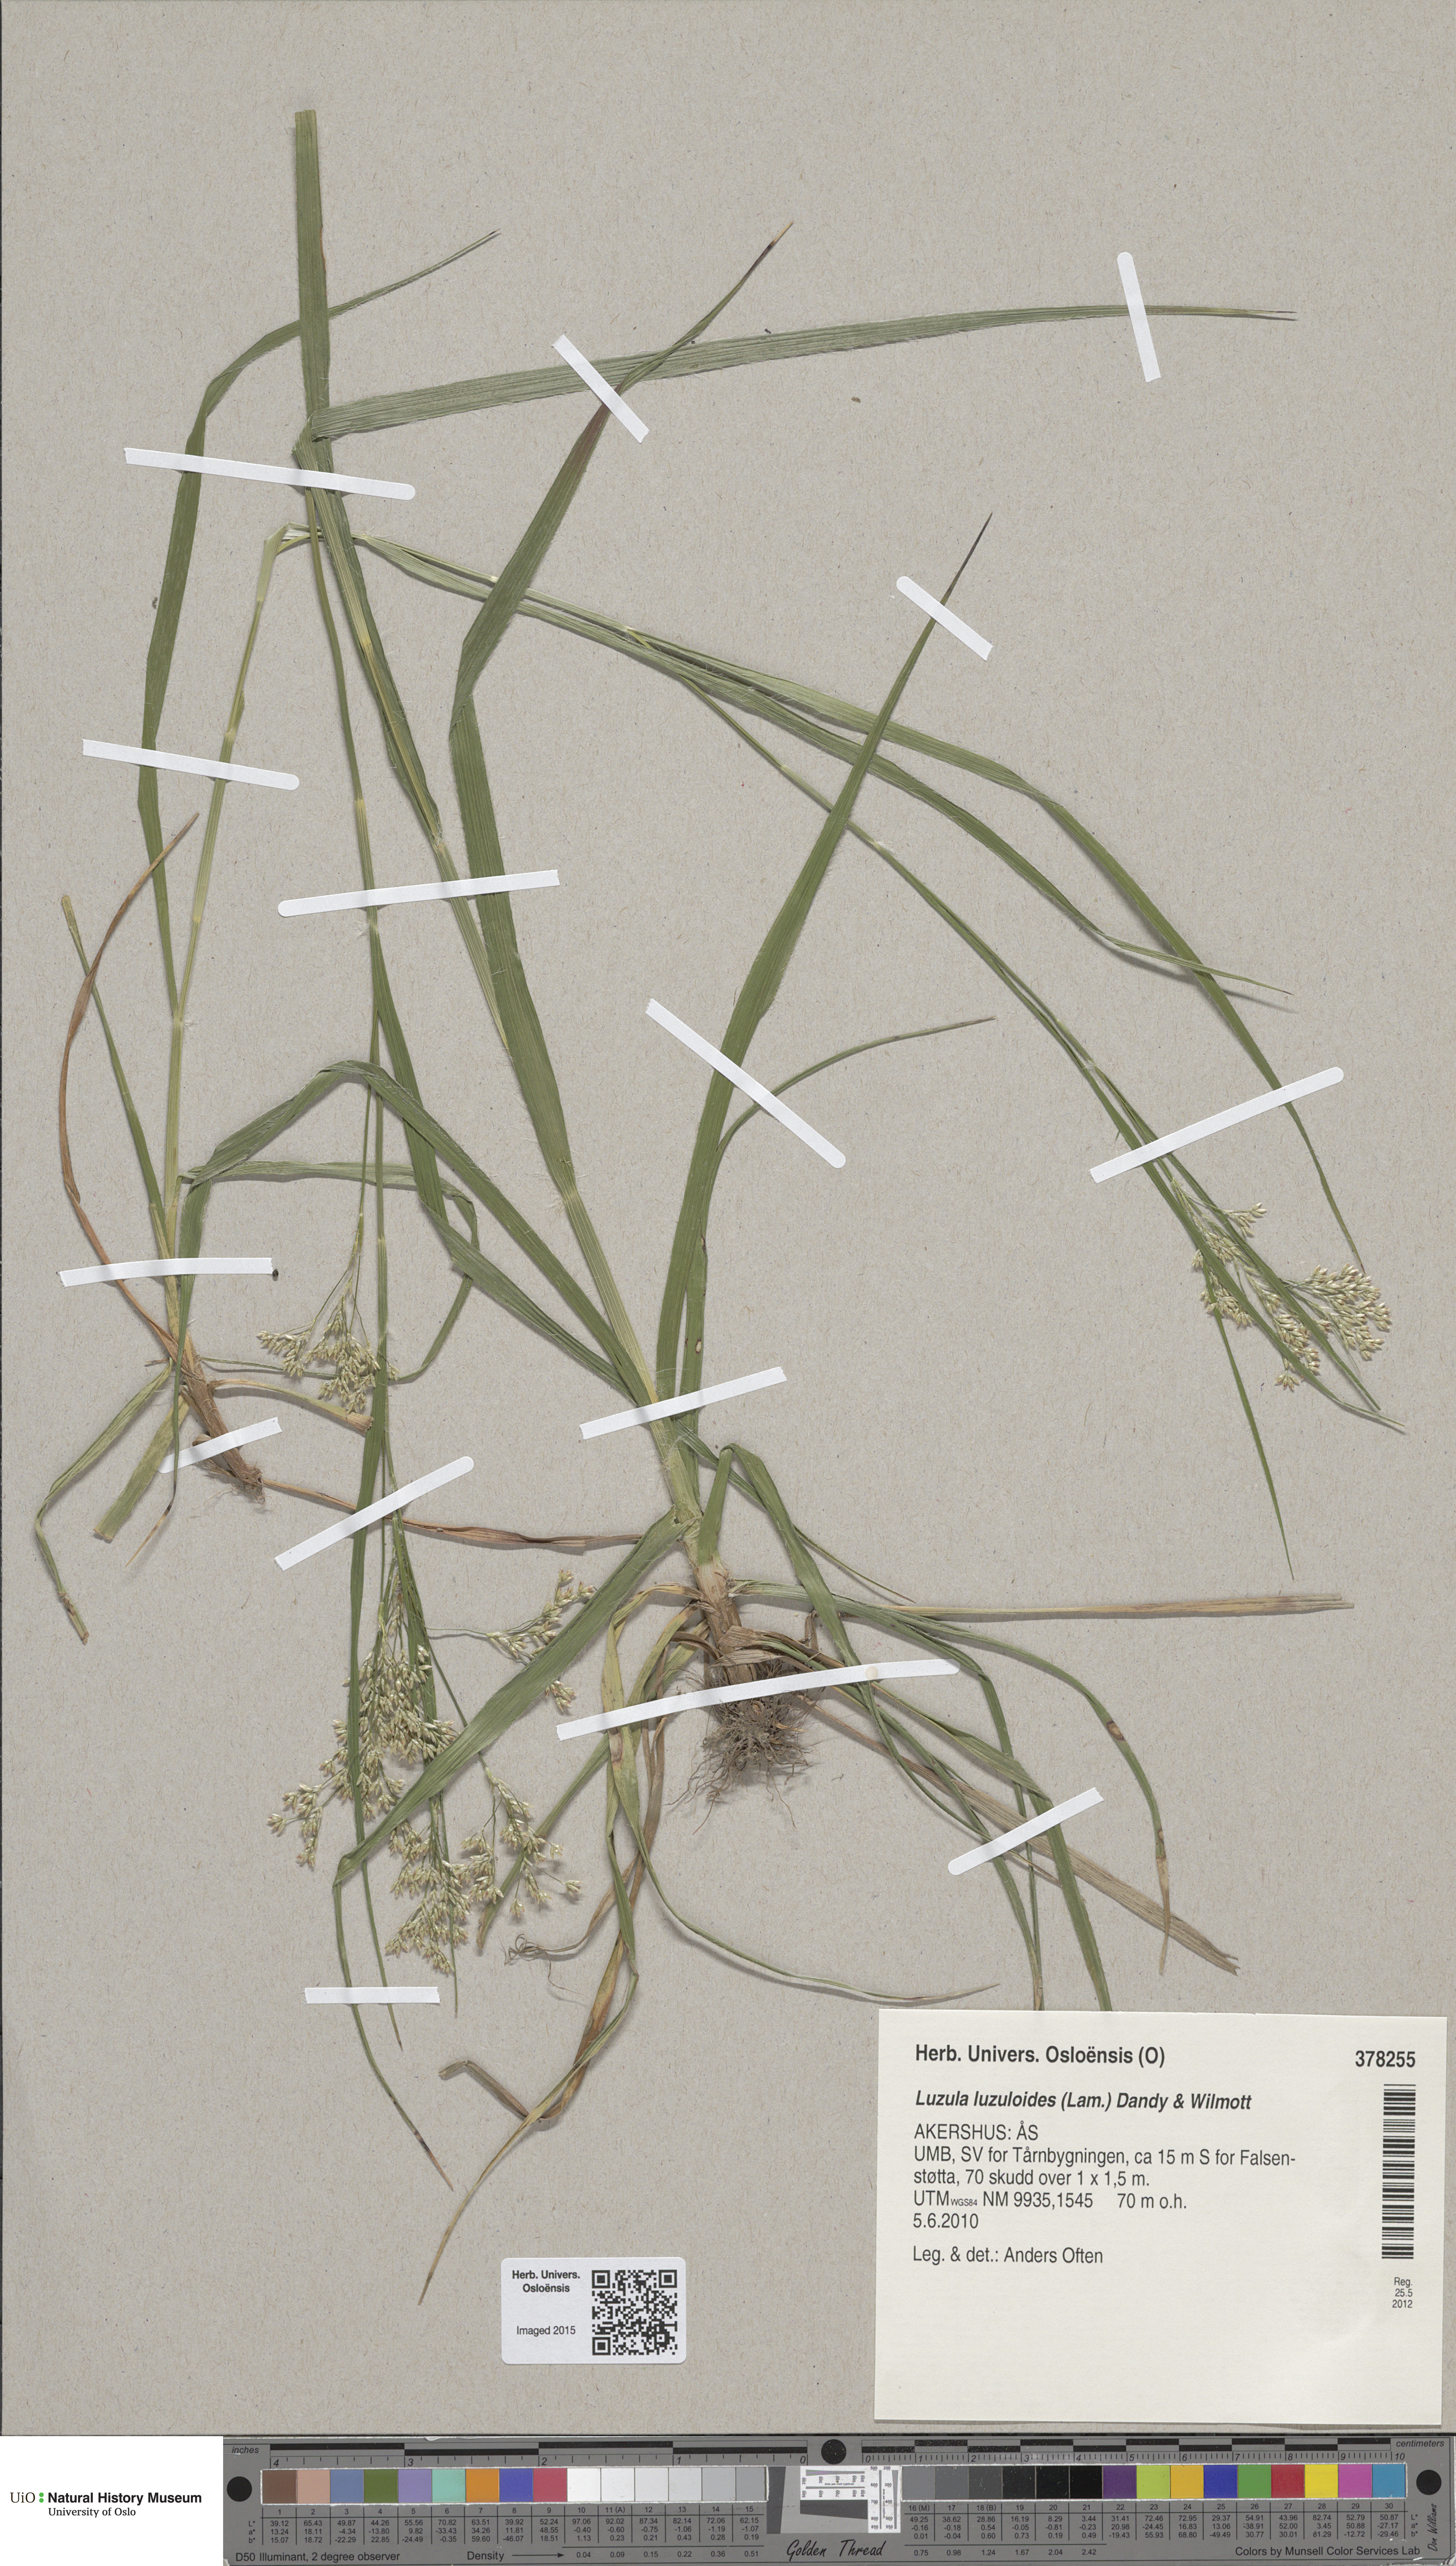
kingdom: Plantae
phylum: Tracheophyta
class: Liliopsida
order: Poales
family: Juncaceae
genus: Luzula
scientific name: Luzula luzuloides
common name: White wood-rush
